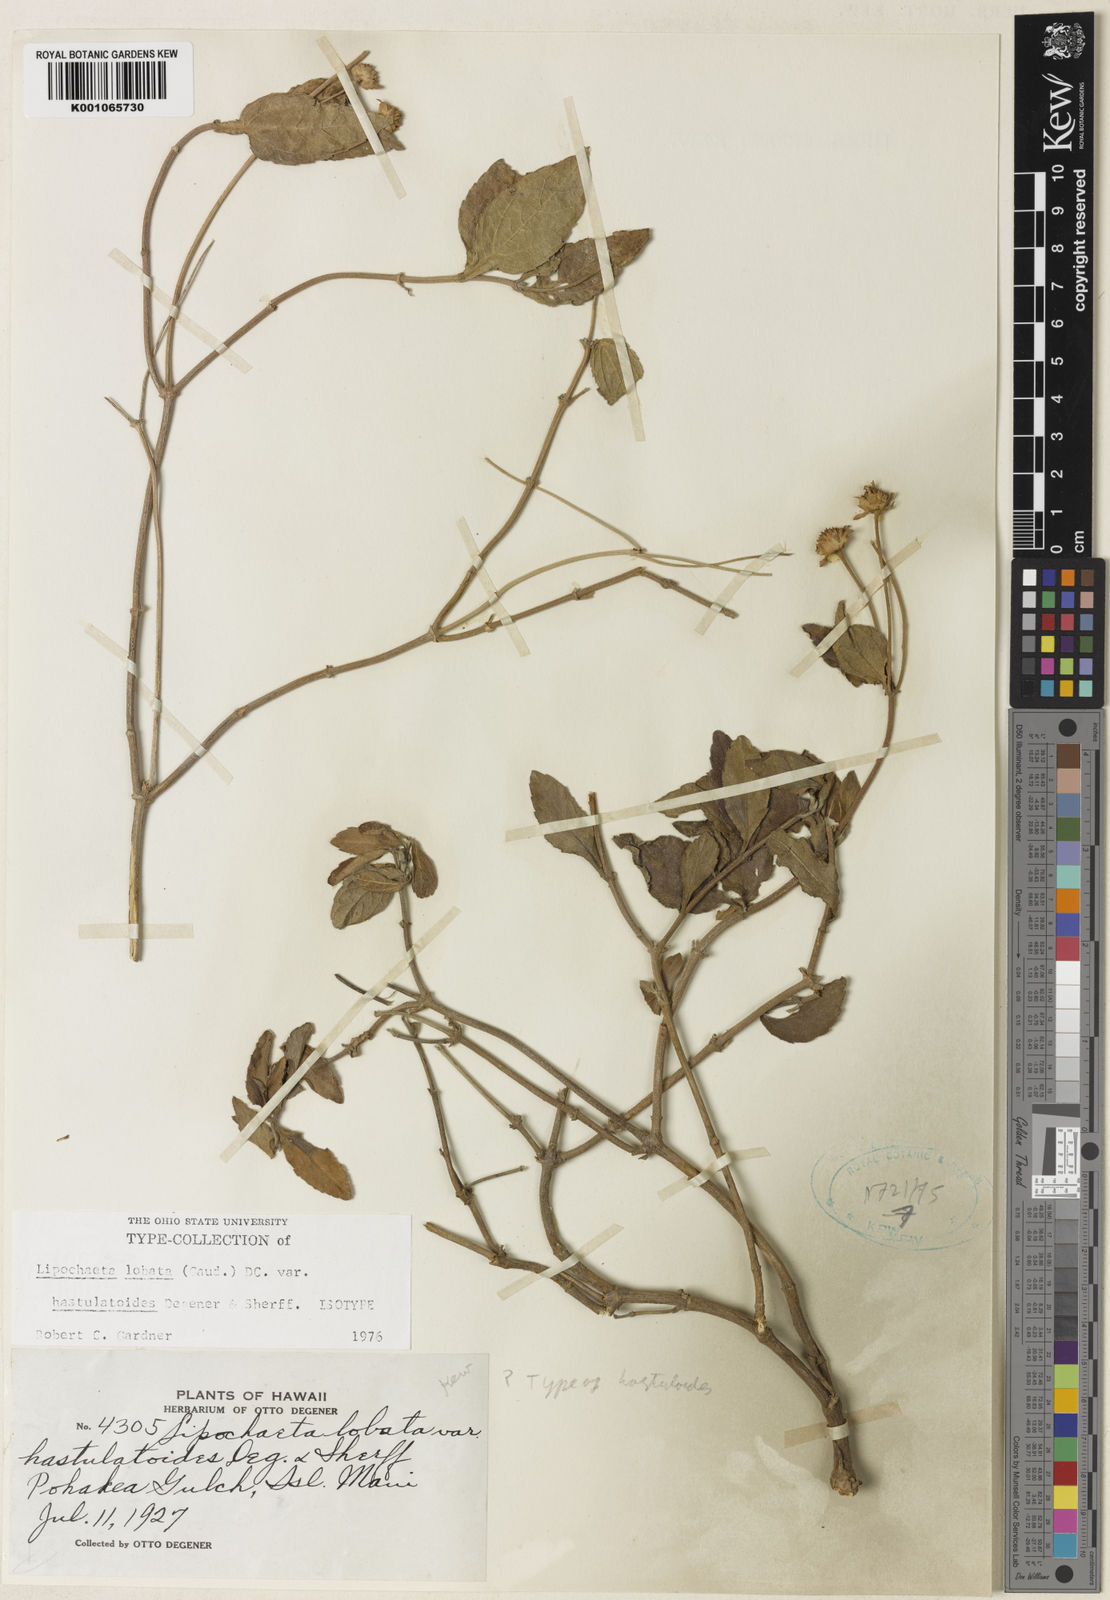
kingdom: Plantae
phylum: Tracheophyta
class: Magnoliopsida
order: Asterales
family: Asteraceae
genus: Lipochaeta
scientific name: Lipochaeta lobata
